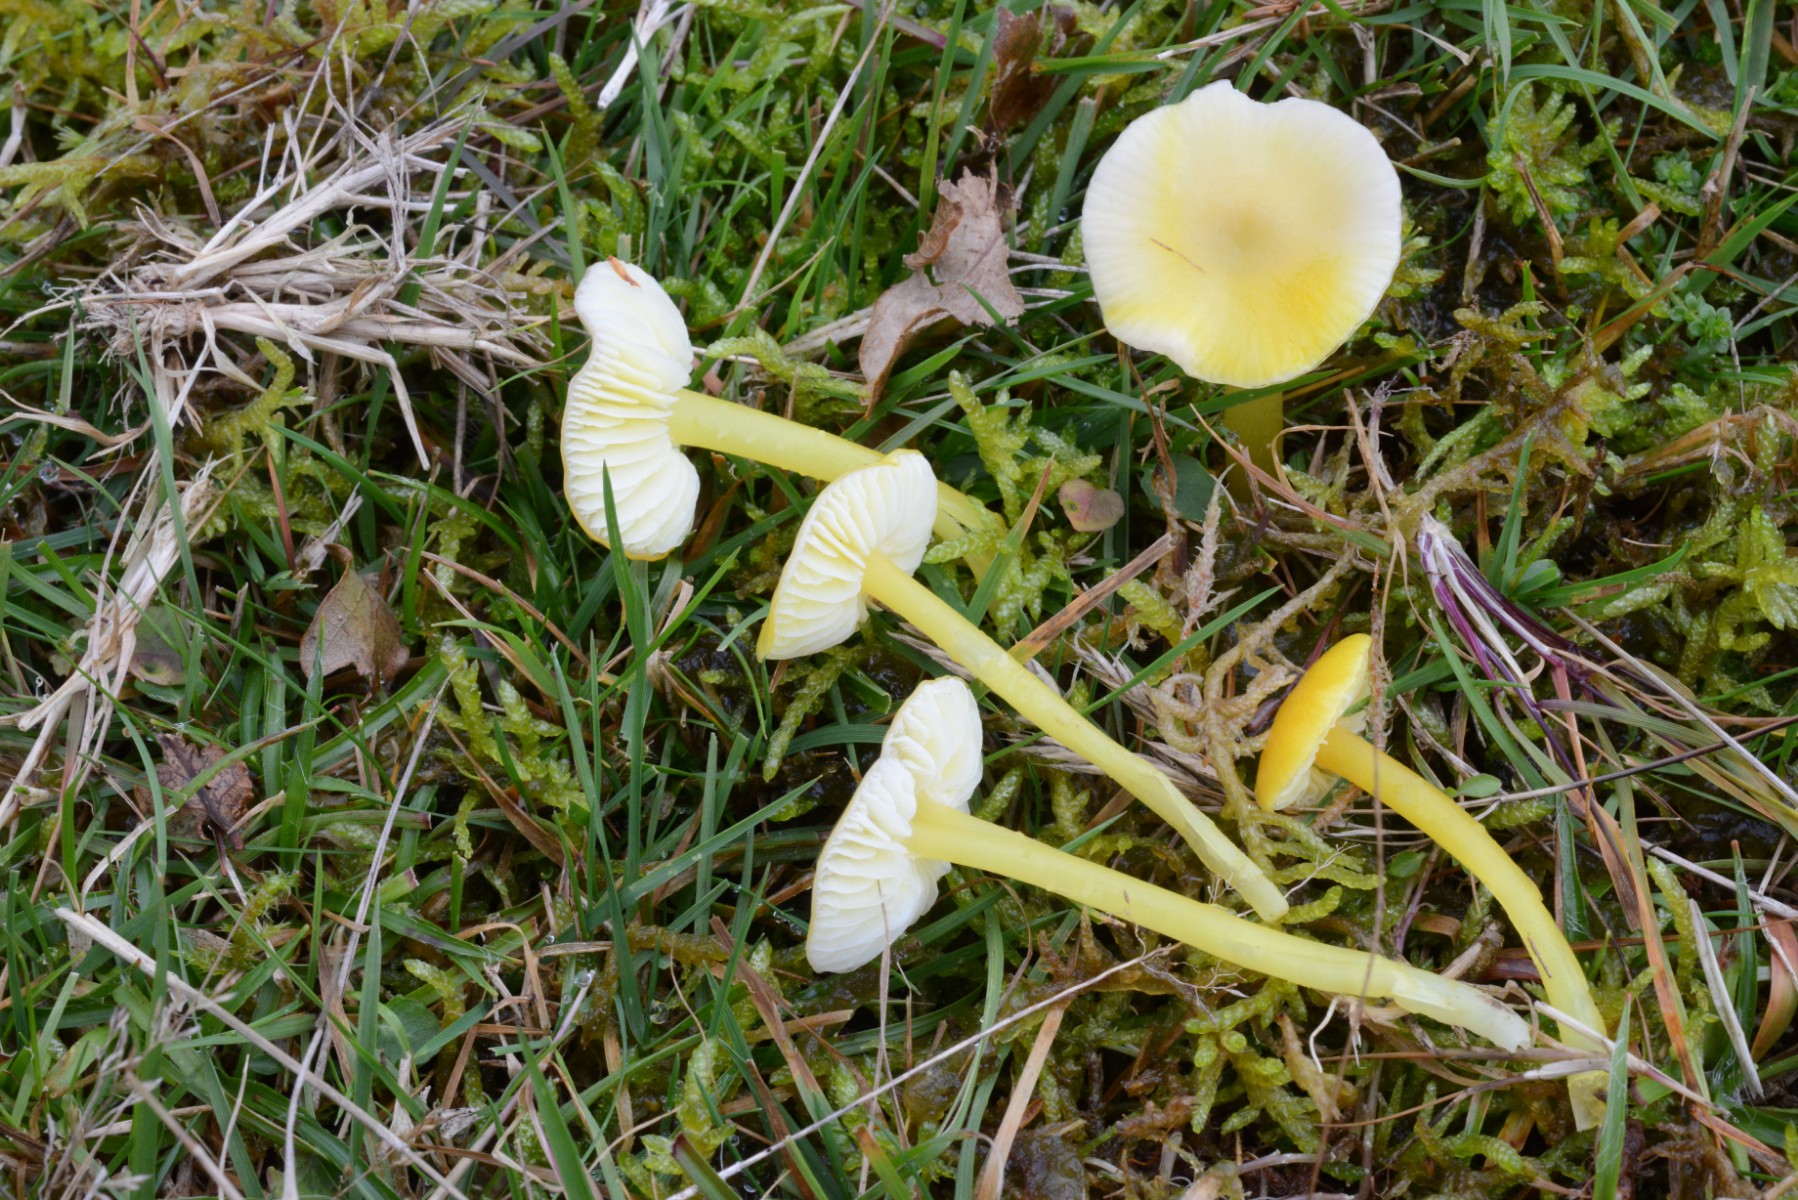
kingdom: Fungi
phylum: Basidiomycota
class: Agaricomycetes
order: Agaricales
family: Hygrophoraceae
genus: Hygrocybe
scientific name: Hygrocybe glutinipes
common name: slimstokket vokshat
